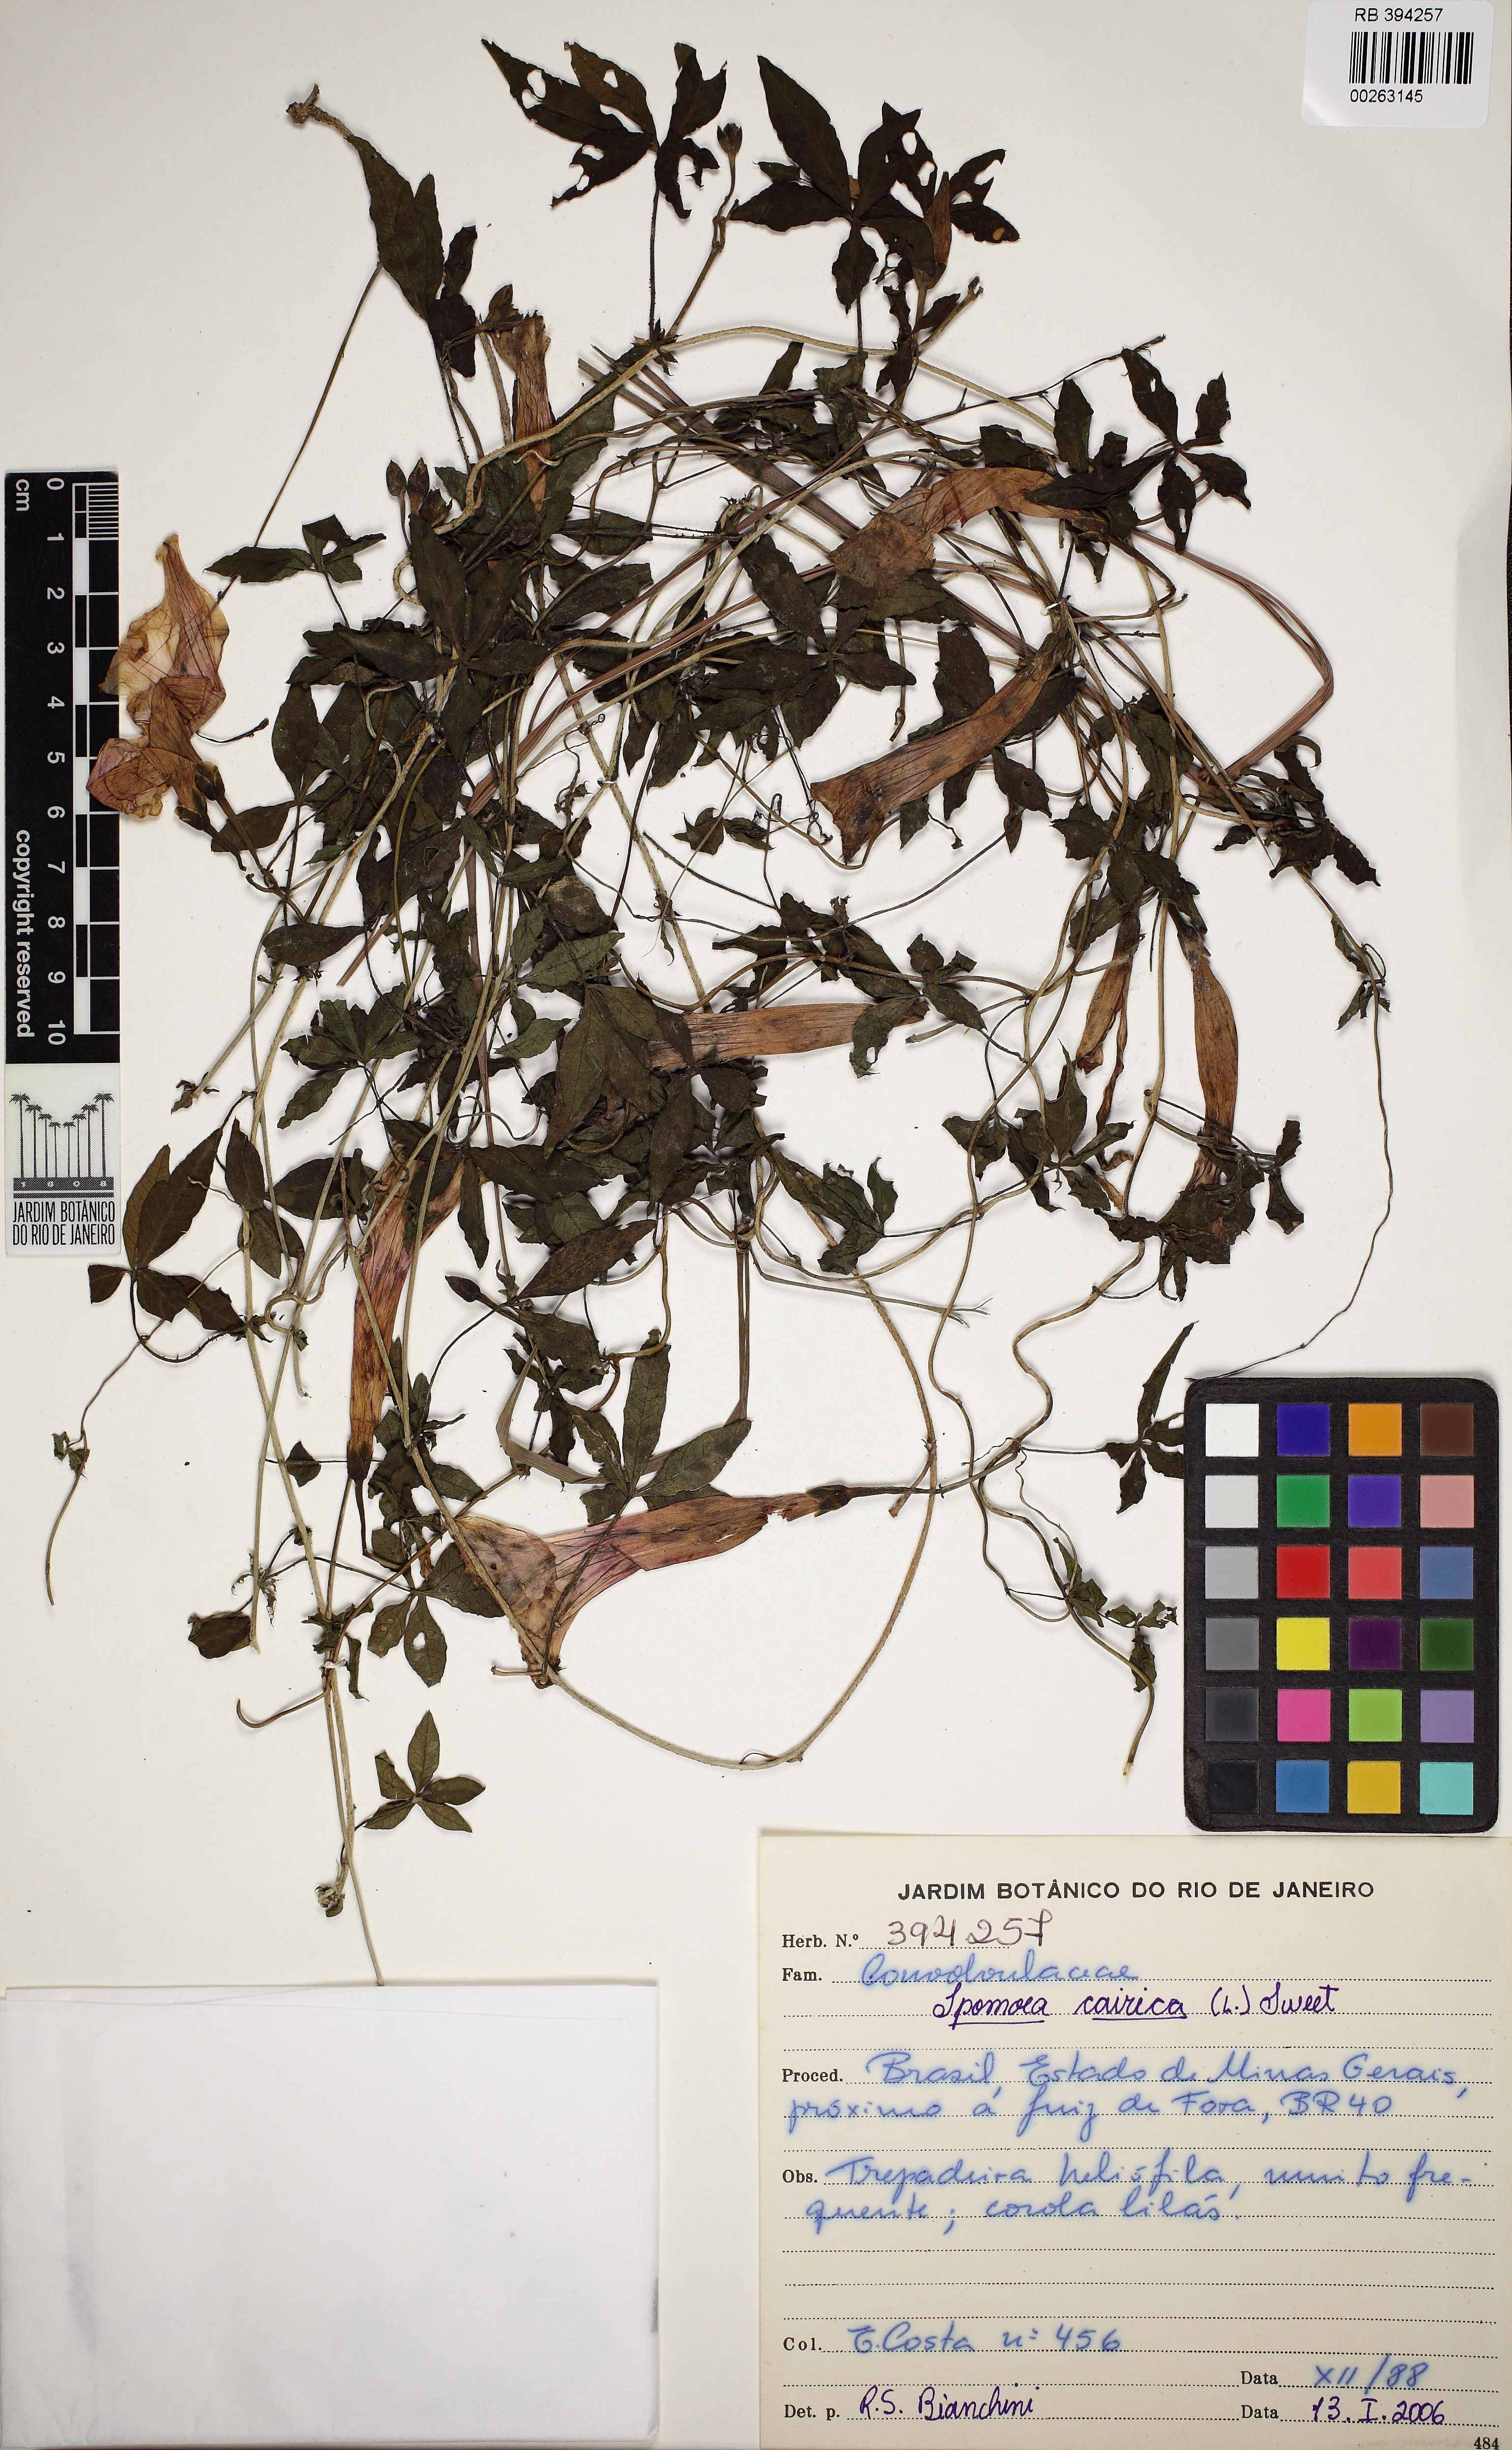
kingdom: Plantae
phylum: Tracheophyta
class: Magnoliopsida
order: Solanales
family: Convolvulaceae
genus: Ipomoea
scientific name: Ipomoea cairica
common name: Mile a minute vine
